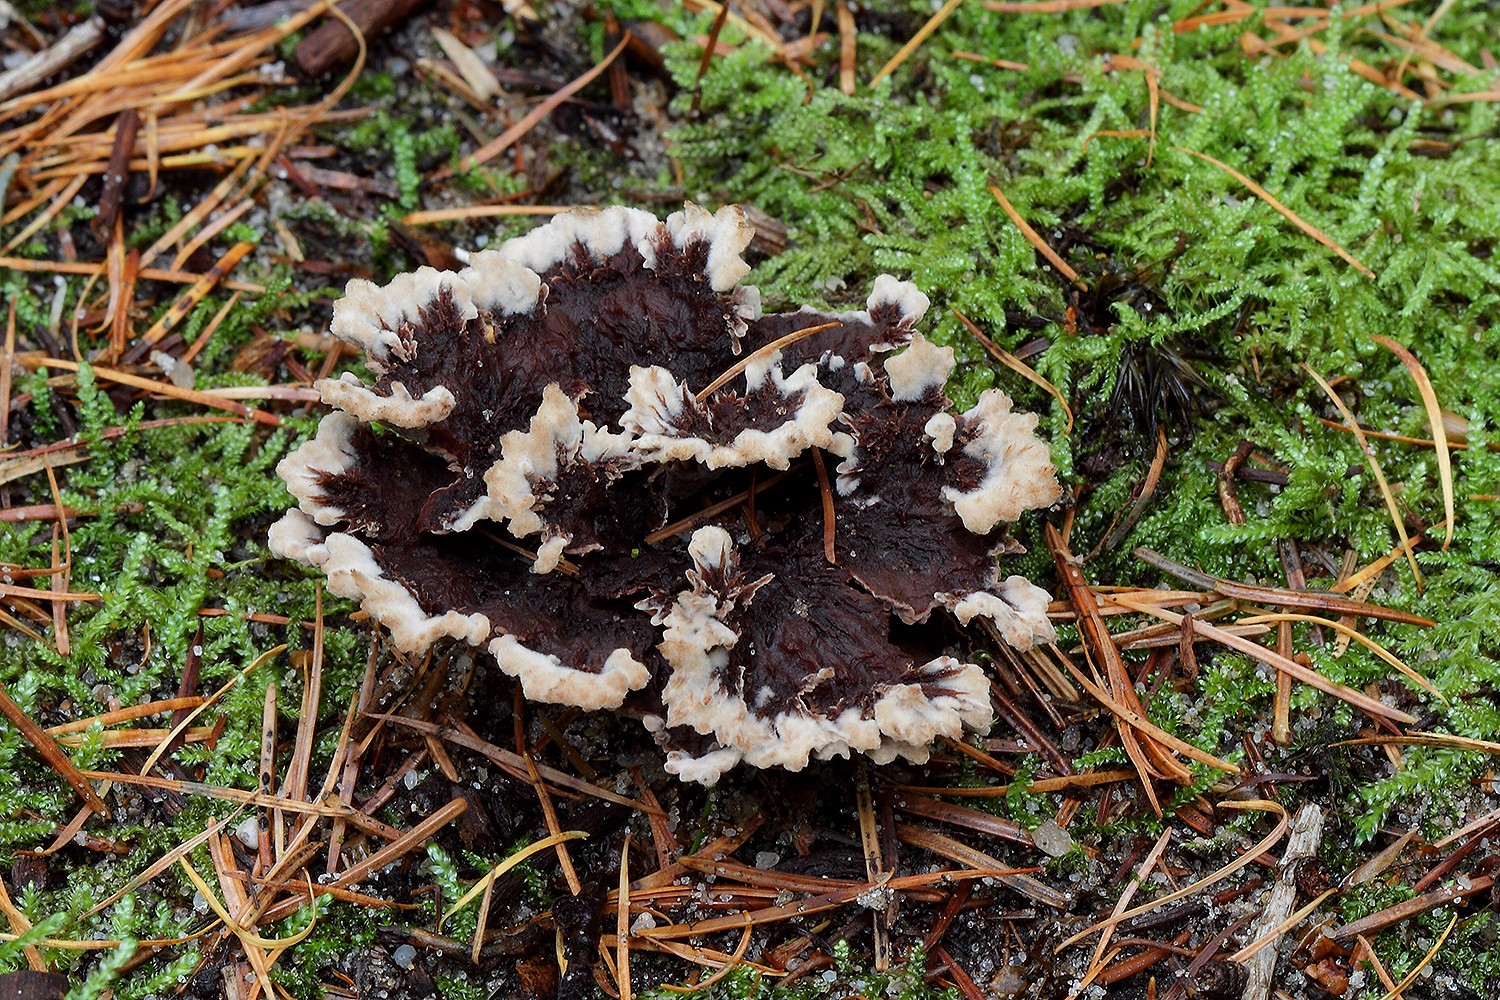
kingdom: Fungi
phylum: Basidiomycota
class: Agaricomycetes
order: Thelephorales
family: Thelephoraceae
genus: Thelephora
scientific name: Thelephora terrestris
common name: fliget frynsesvamp
